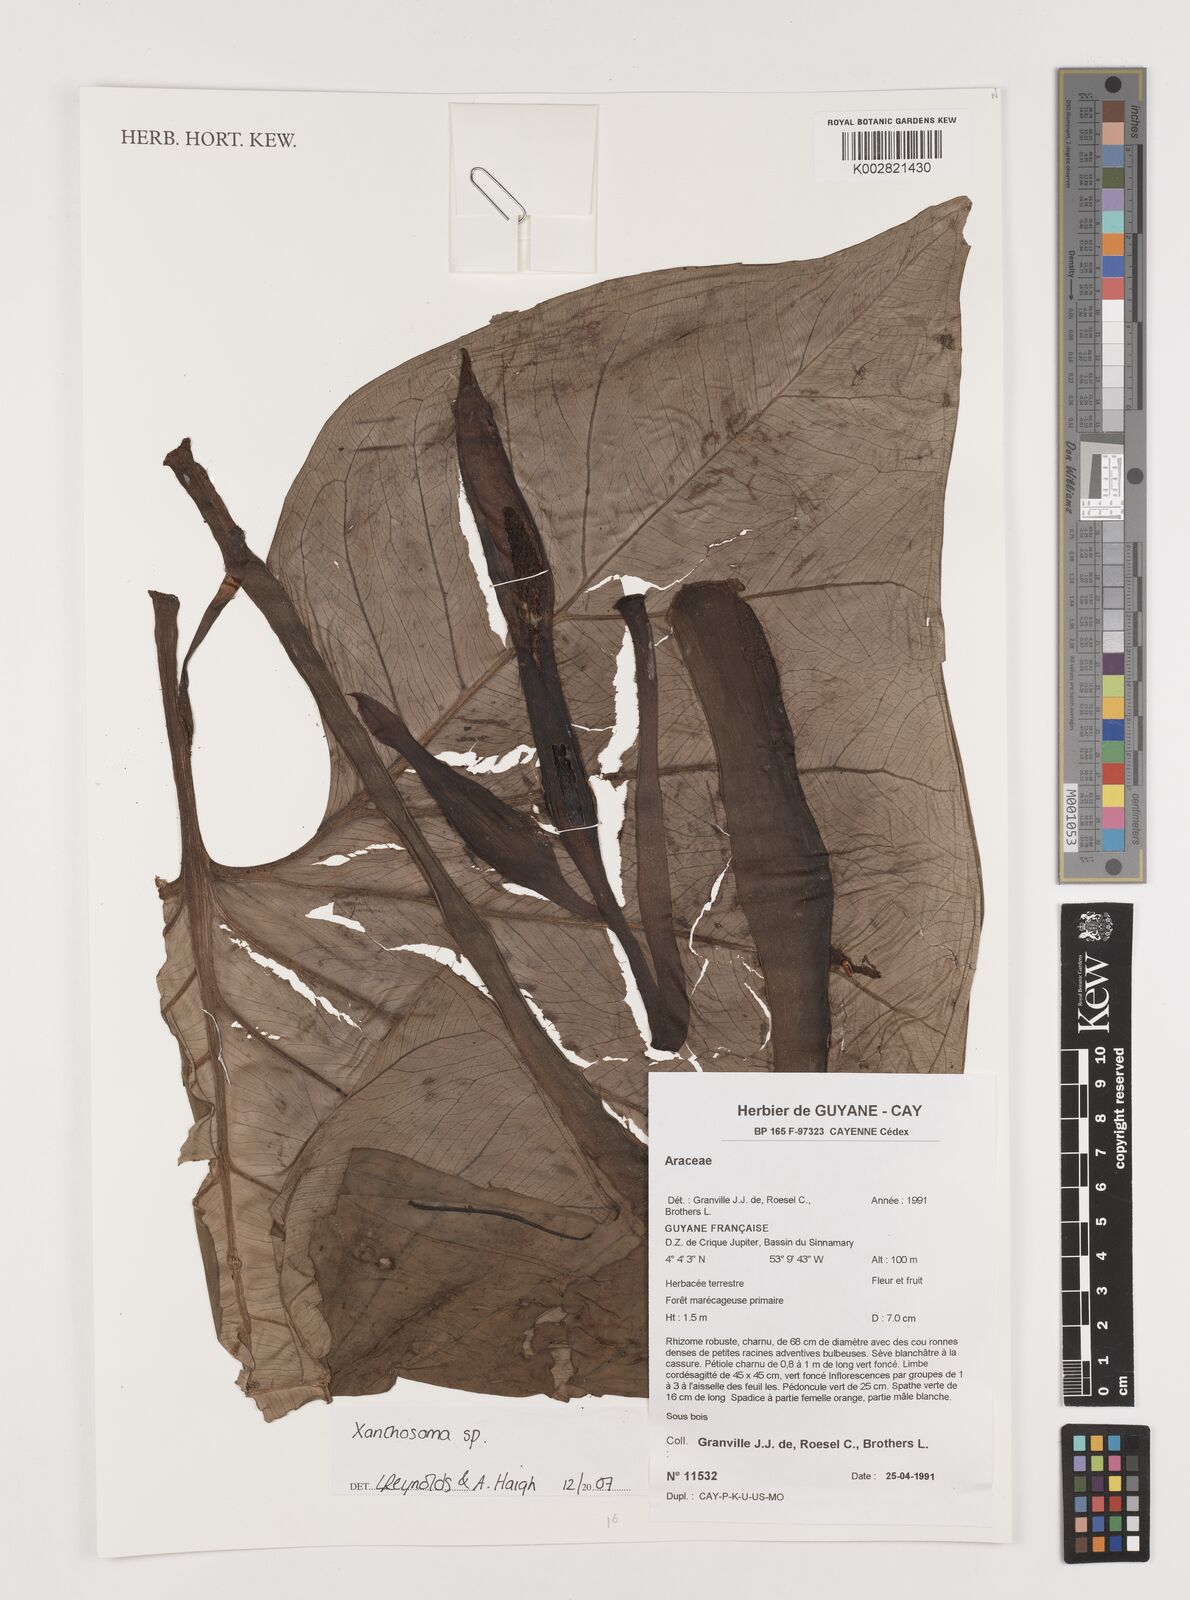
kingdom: Plantae
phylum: Tracheophyta
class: Liliopsida
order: Alismatales
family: Araceae
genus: Xanthosoma
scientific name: Xanthosoma
